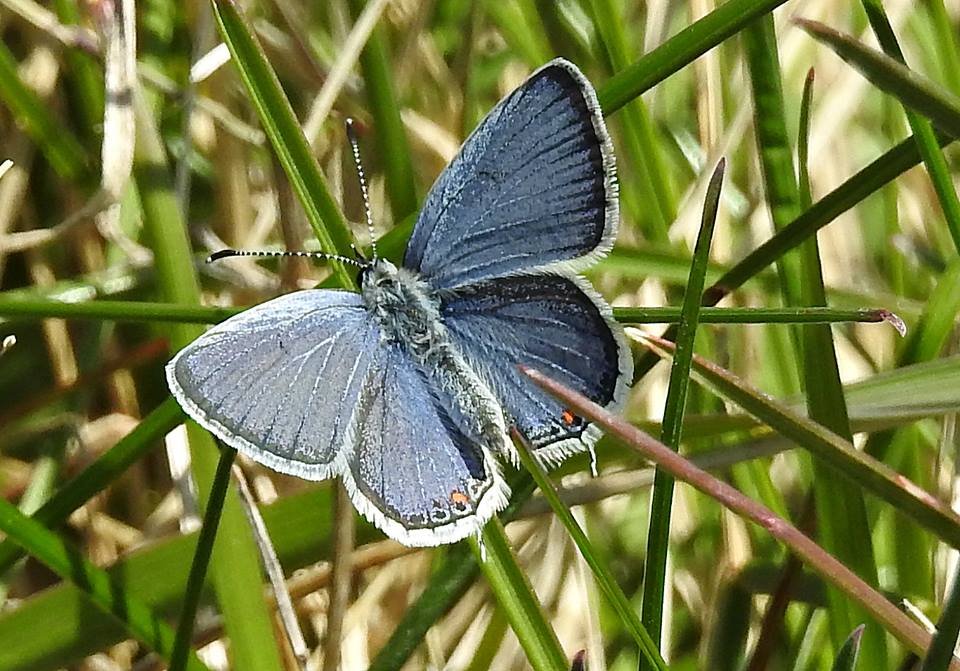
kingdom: Animalia
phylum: Arthropoda
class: Insecta
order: Lepidoptera
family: Lycaenidae
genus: Elkalyce
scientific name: Elkalyce comyntas
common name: Eastern Tailed-Blue
